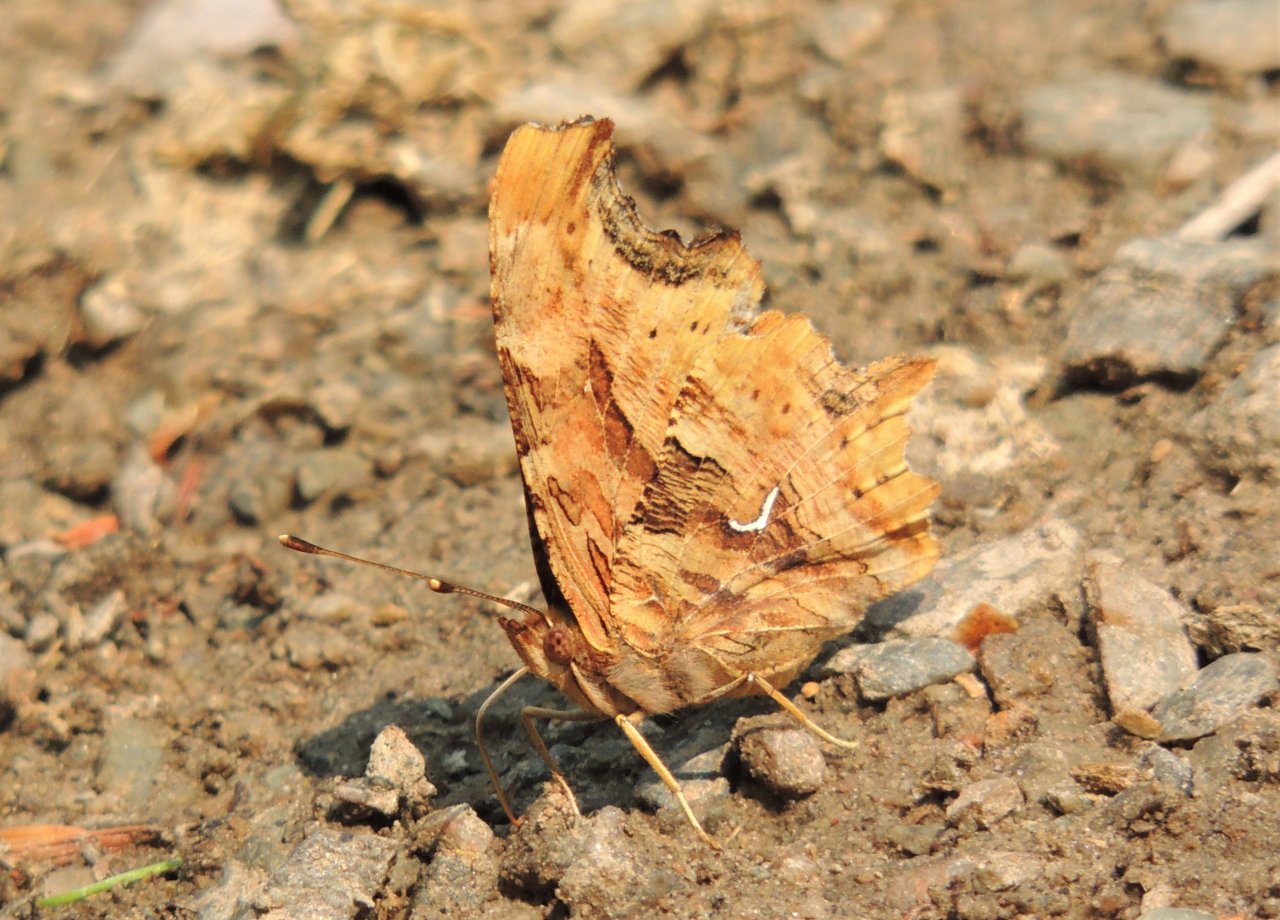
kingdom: Animalia
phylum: Arthropoda
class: Insecta
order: Lepidoptera
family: Nymphalidae
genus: Polygonia
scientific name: Polygonia satyrus
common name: Satyr Comma
